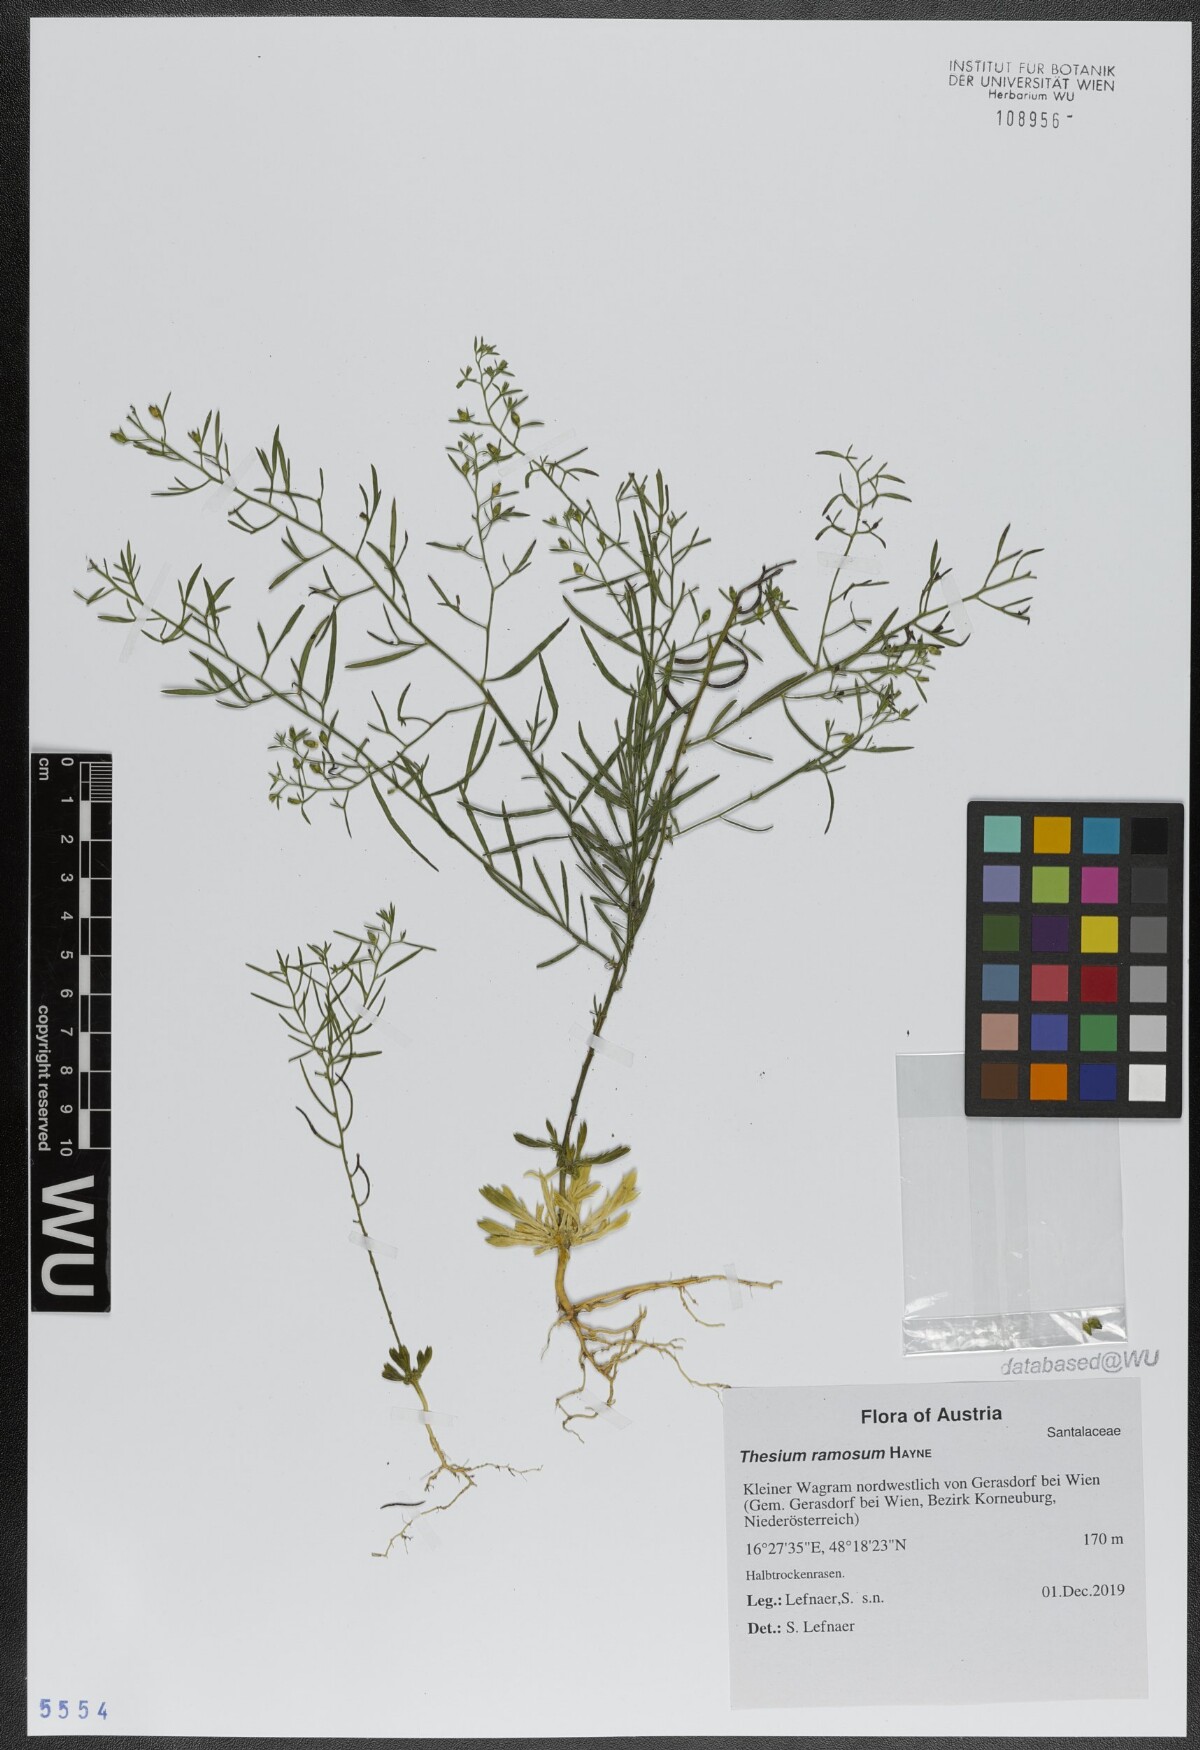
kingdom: Plantae
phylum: Tracheophyta
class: Magnoliopsida
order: Santalales
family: Thesiaceae
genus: Thesium
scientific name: Thesium ramosum
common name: Field thesium
